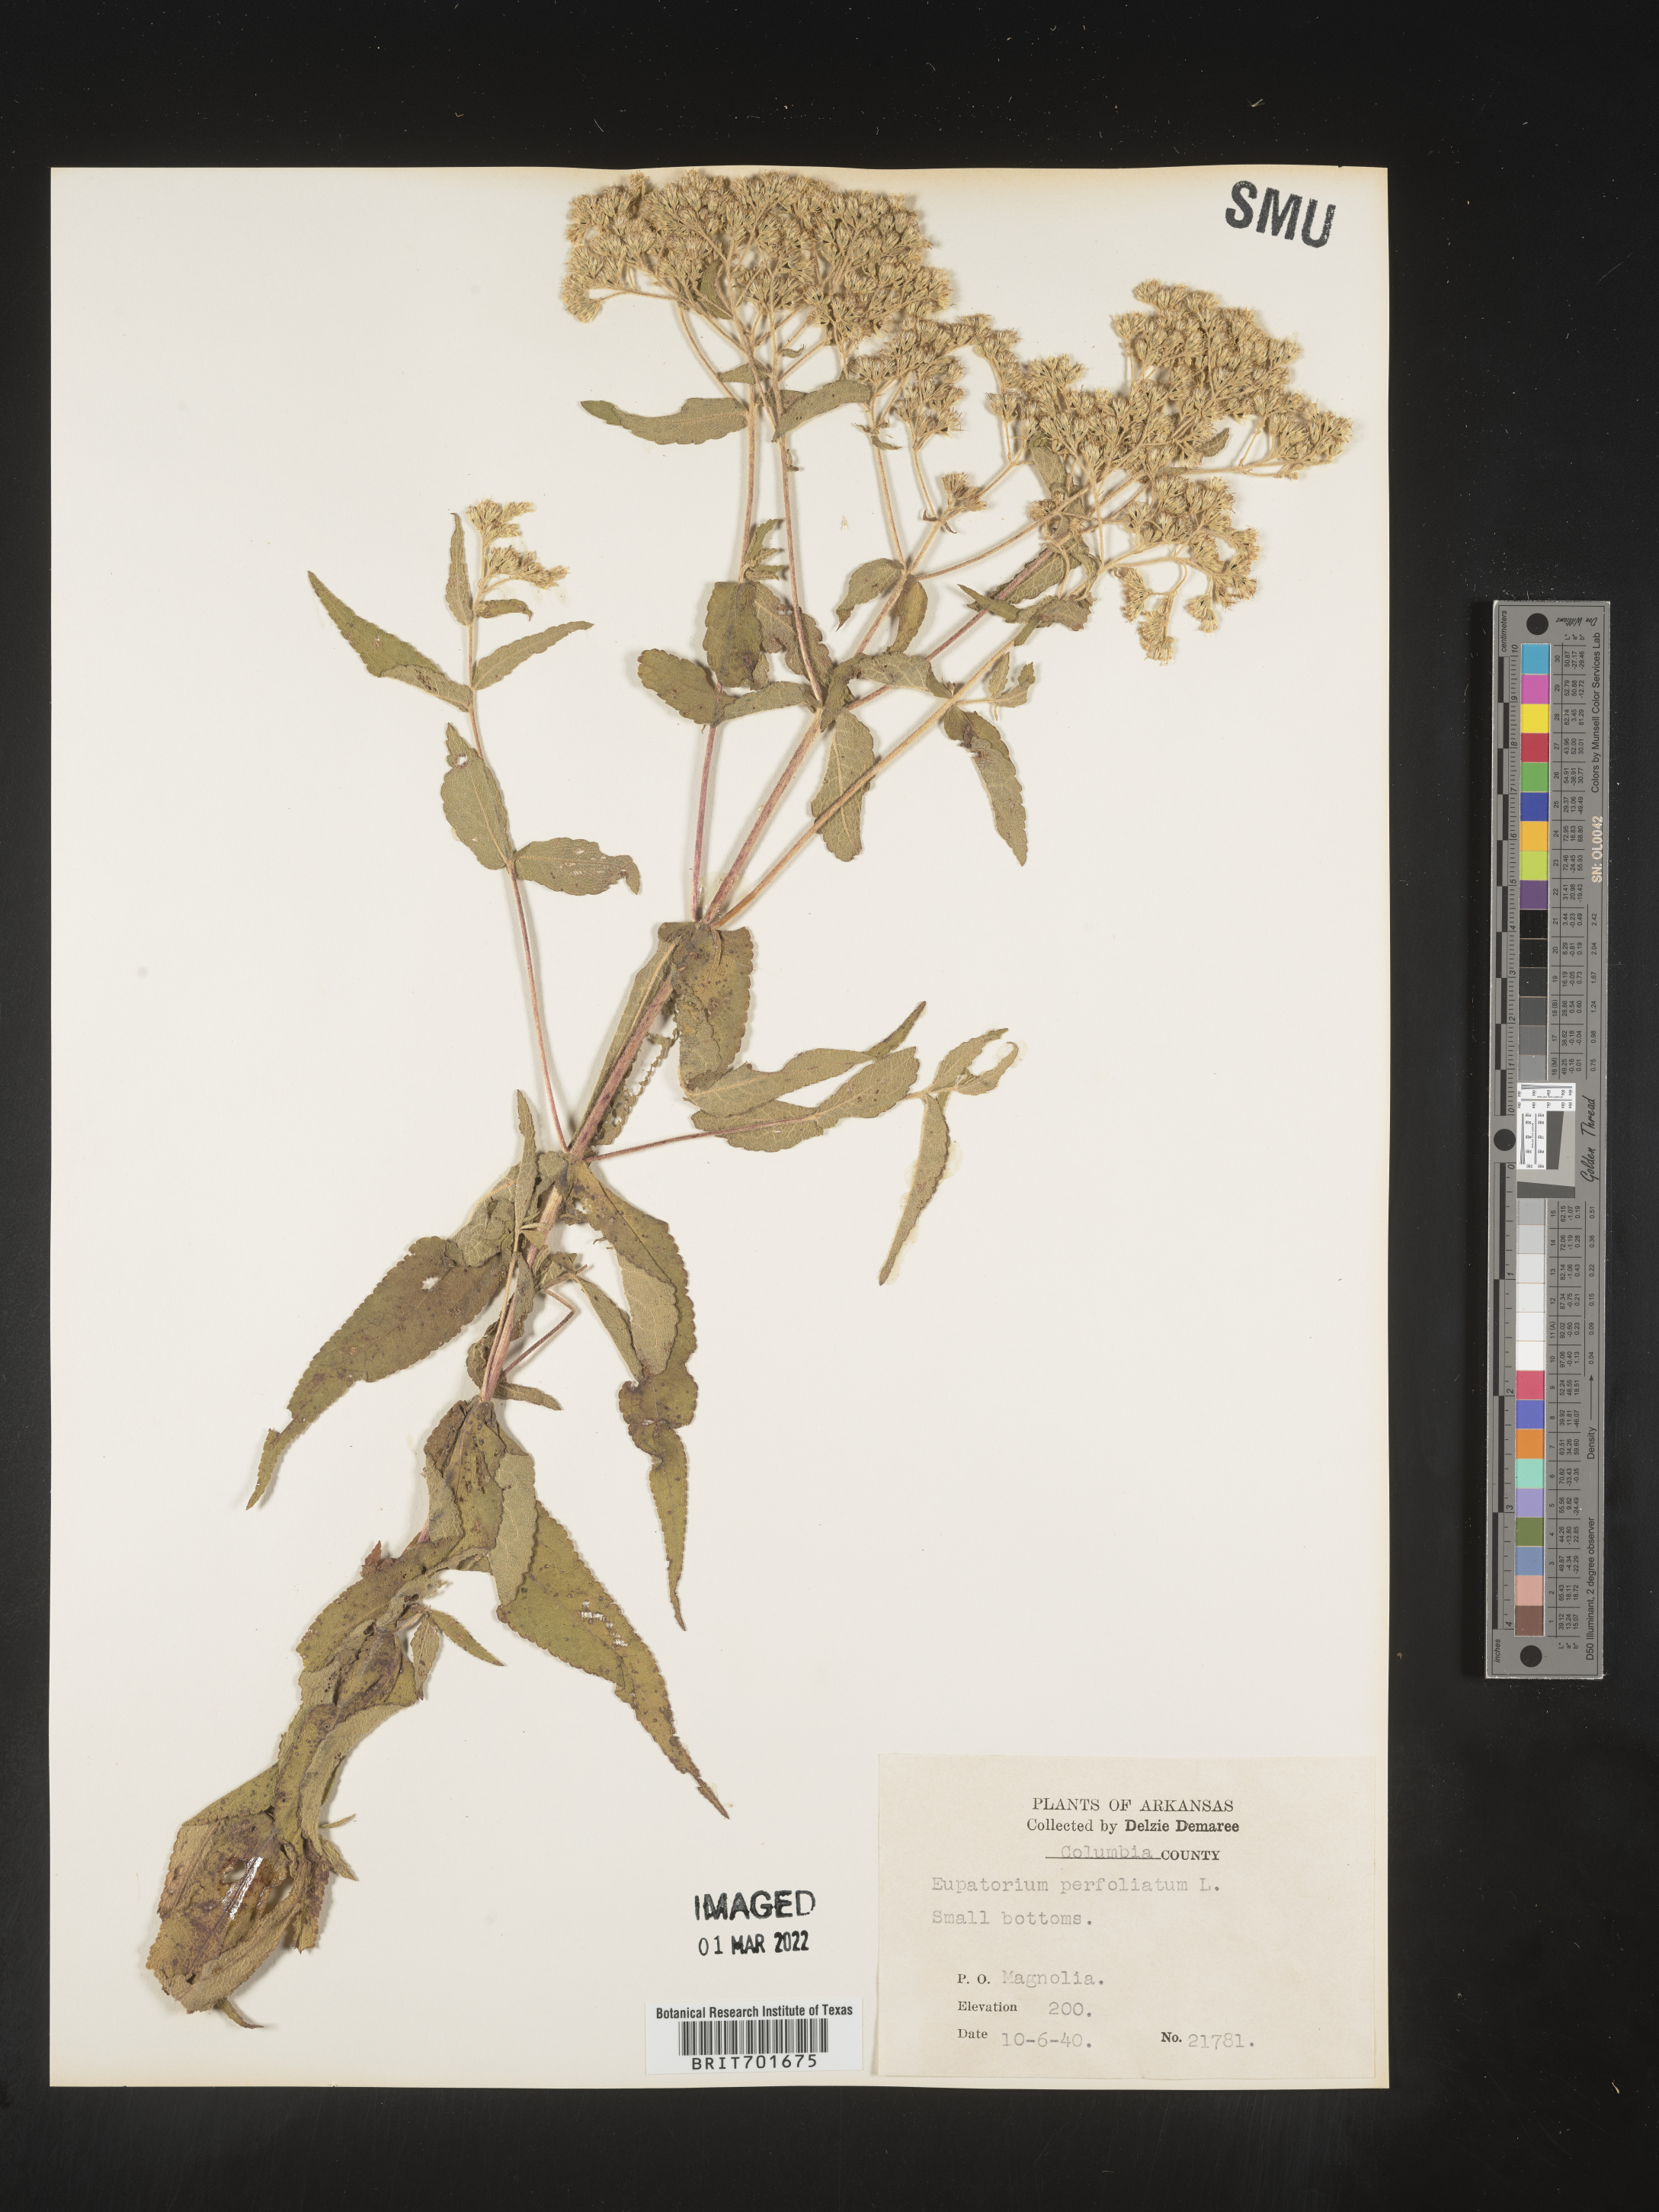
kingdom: Plantae
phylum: Tracheophyta
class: Magnoliopsida
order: Asterales
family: Asteraceae
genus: Eupatorium
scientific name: Eupatorium perfoliatum
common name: Boneset
